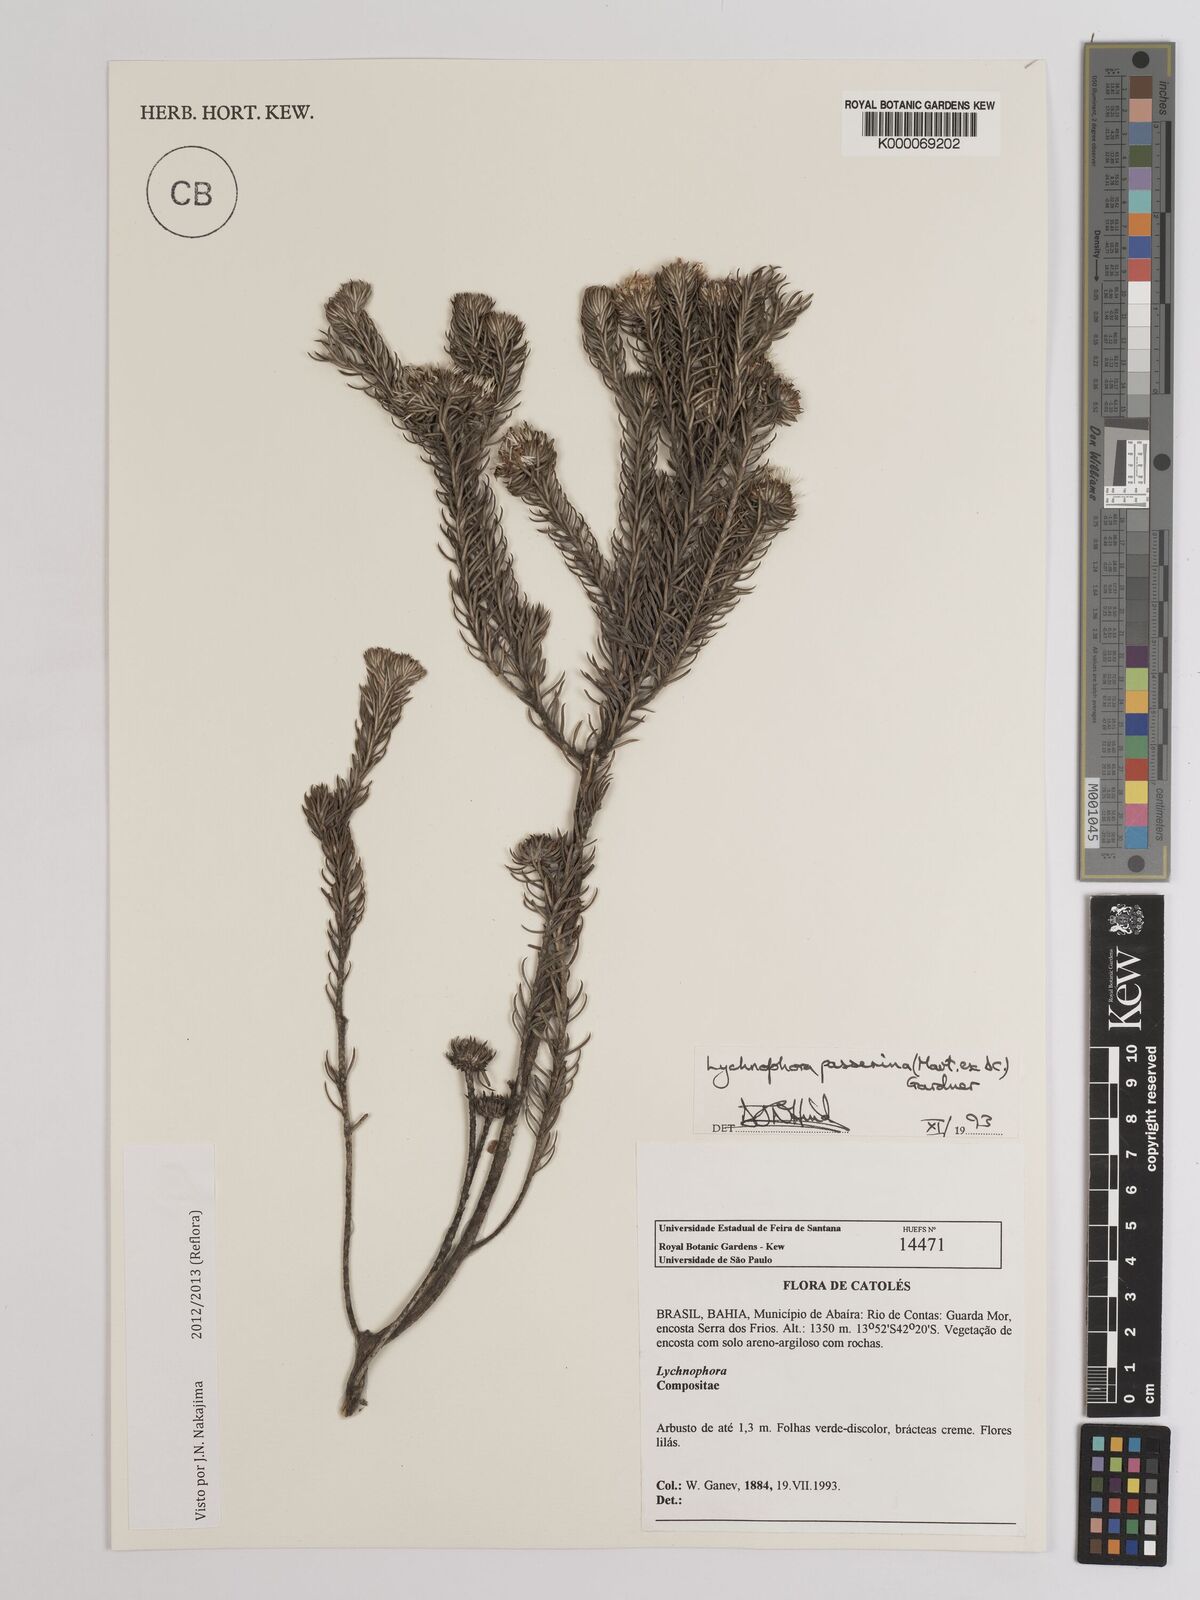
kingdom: Plantae
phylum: Tracheophyta
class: Magnoliopsida
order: Asterales
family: Asteraceae
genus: Lychnophora
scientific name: Lychnophora passerina
